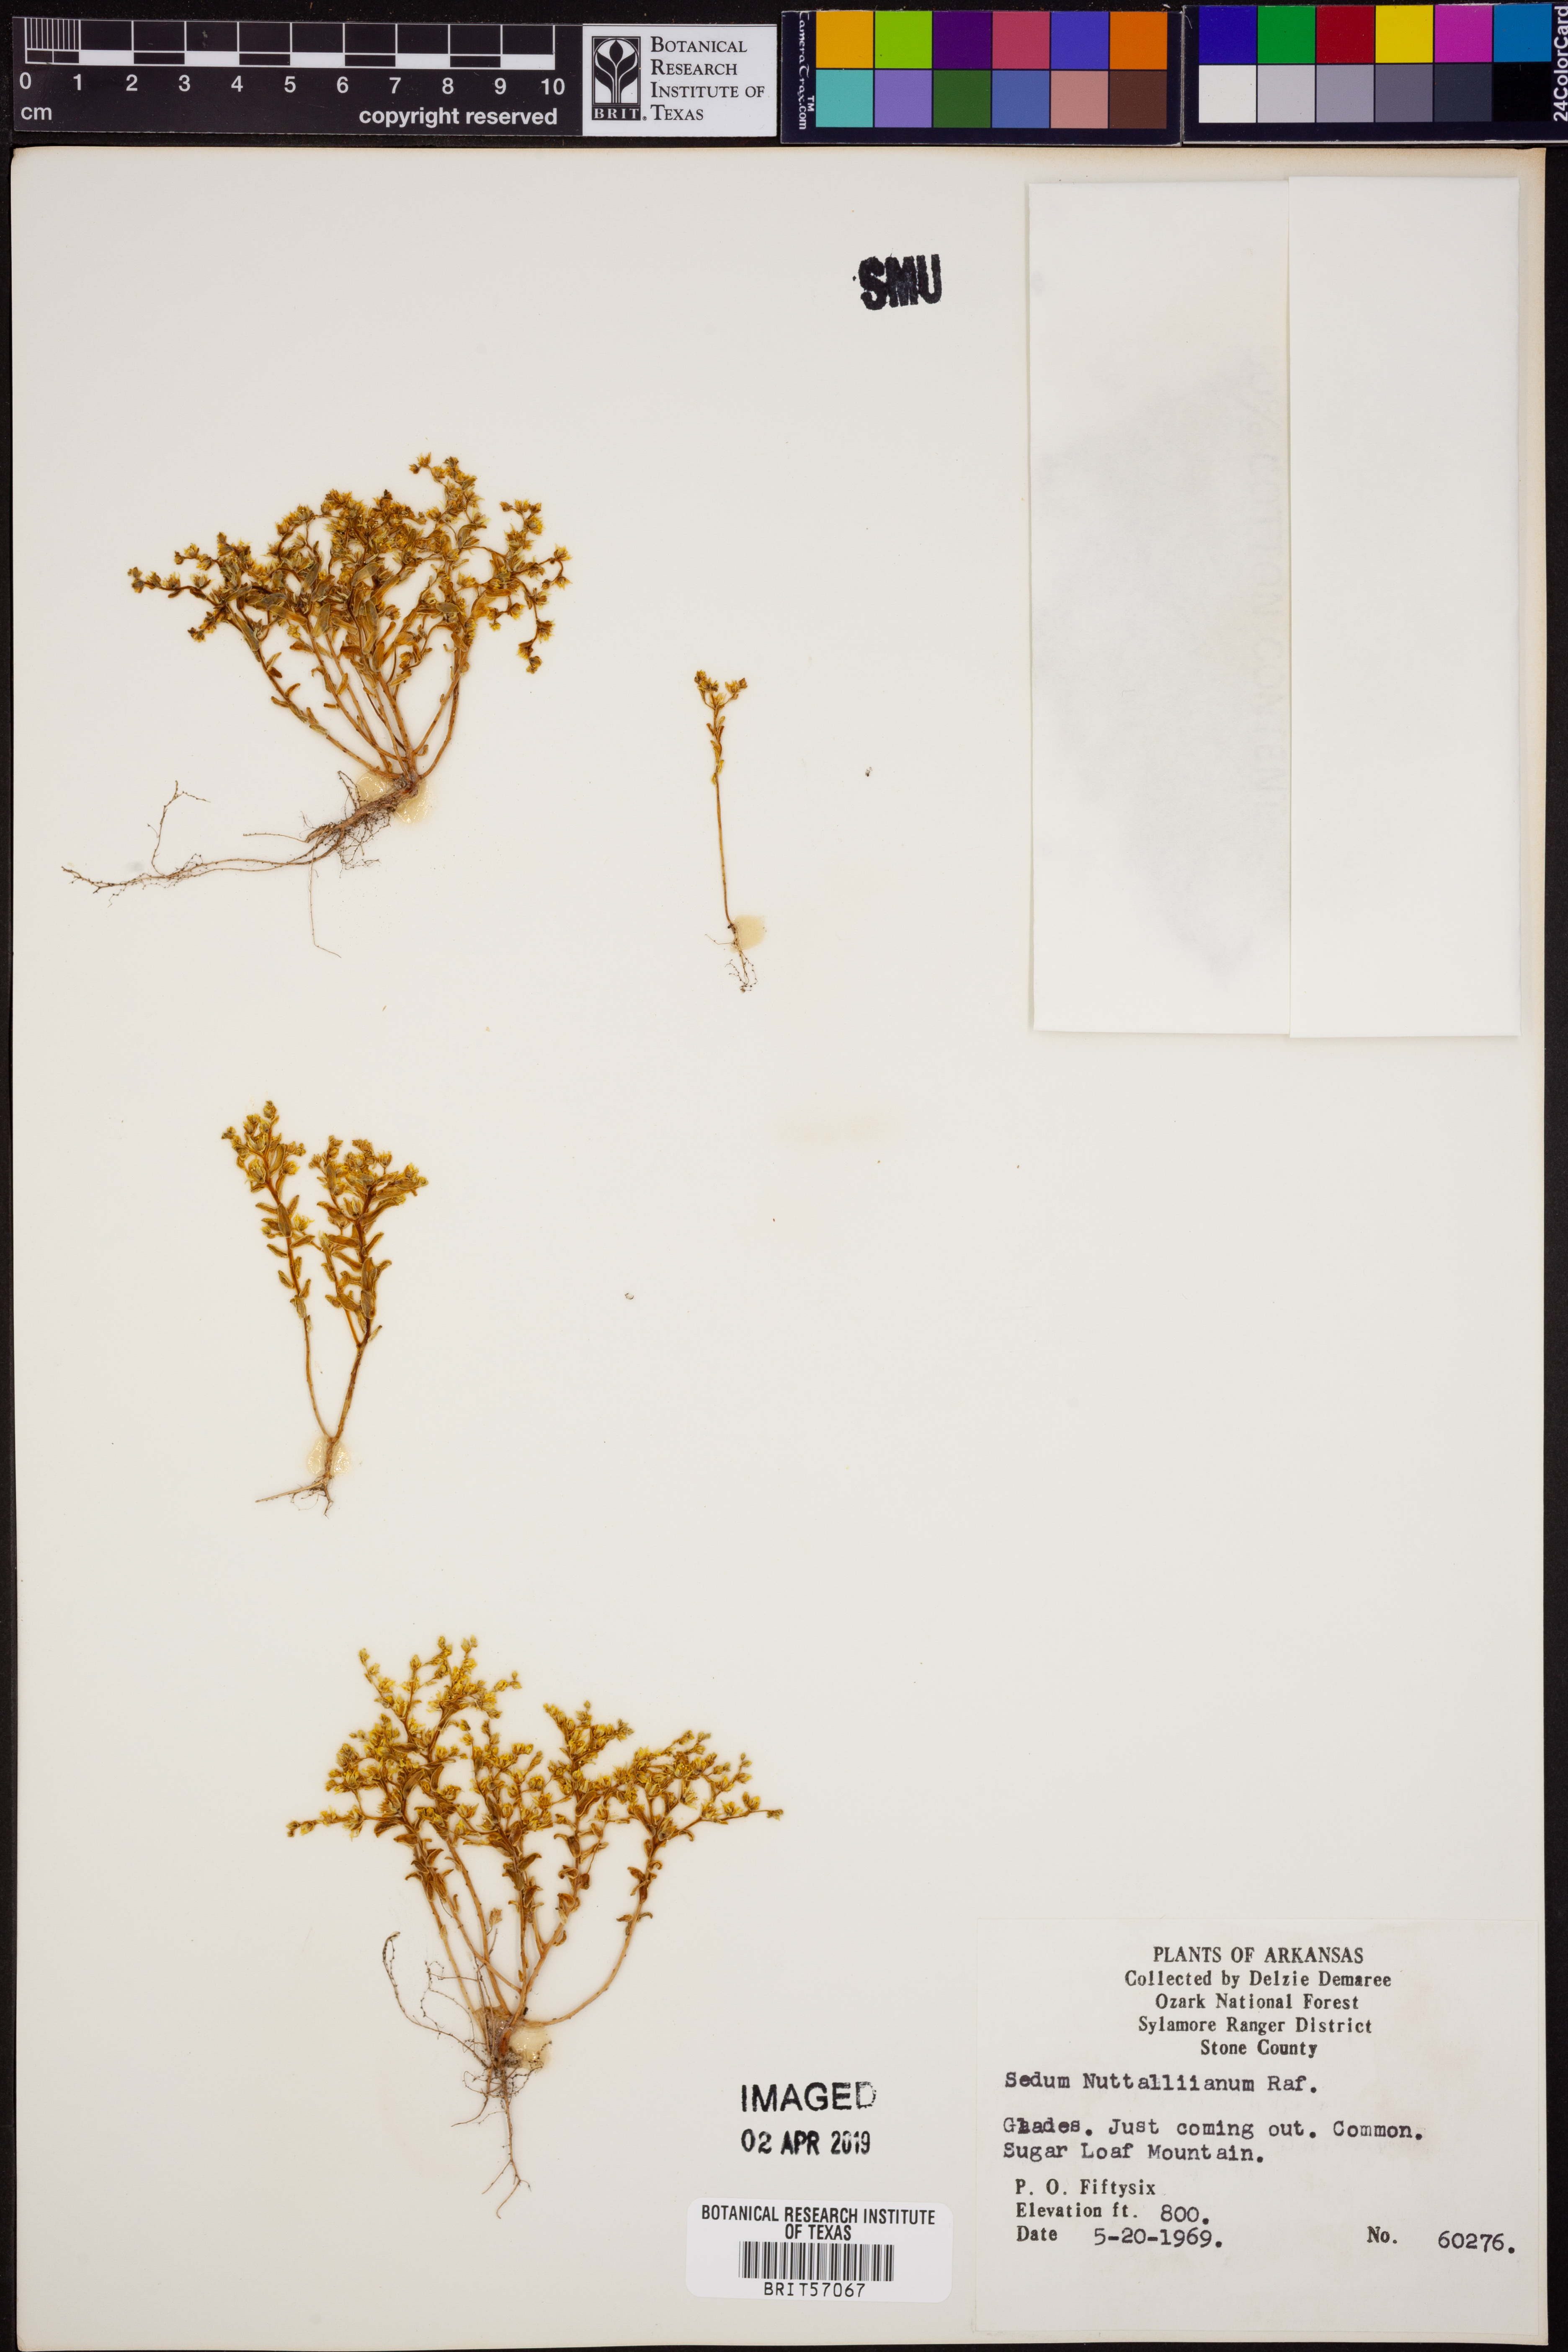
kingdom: Plantae
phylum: Tracheophyta
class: Magnoliopsida
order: Saxifragales
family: Crassulaceae
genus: Sedum
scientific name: Sedum nuttallii
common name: Yellow stonecrop
